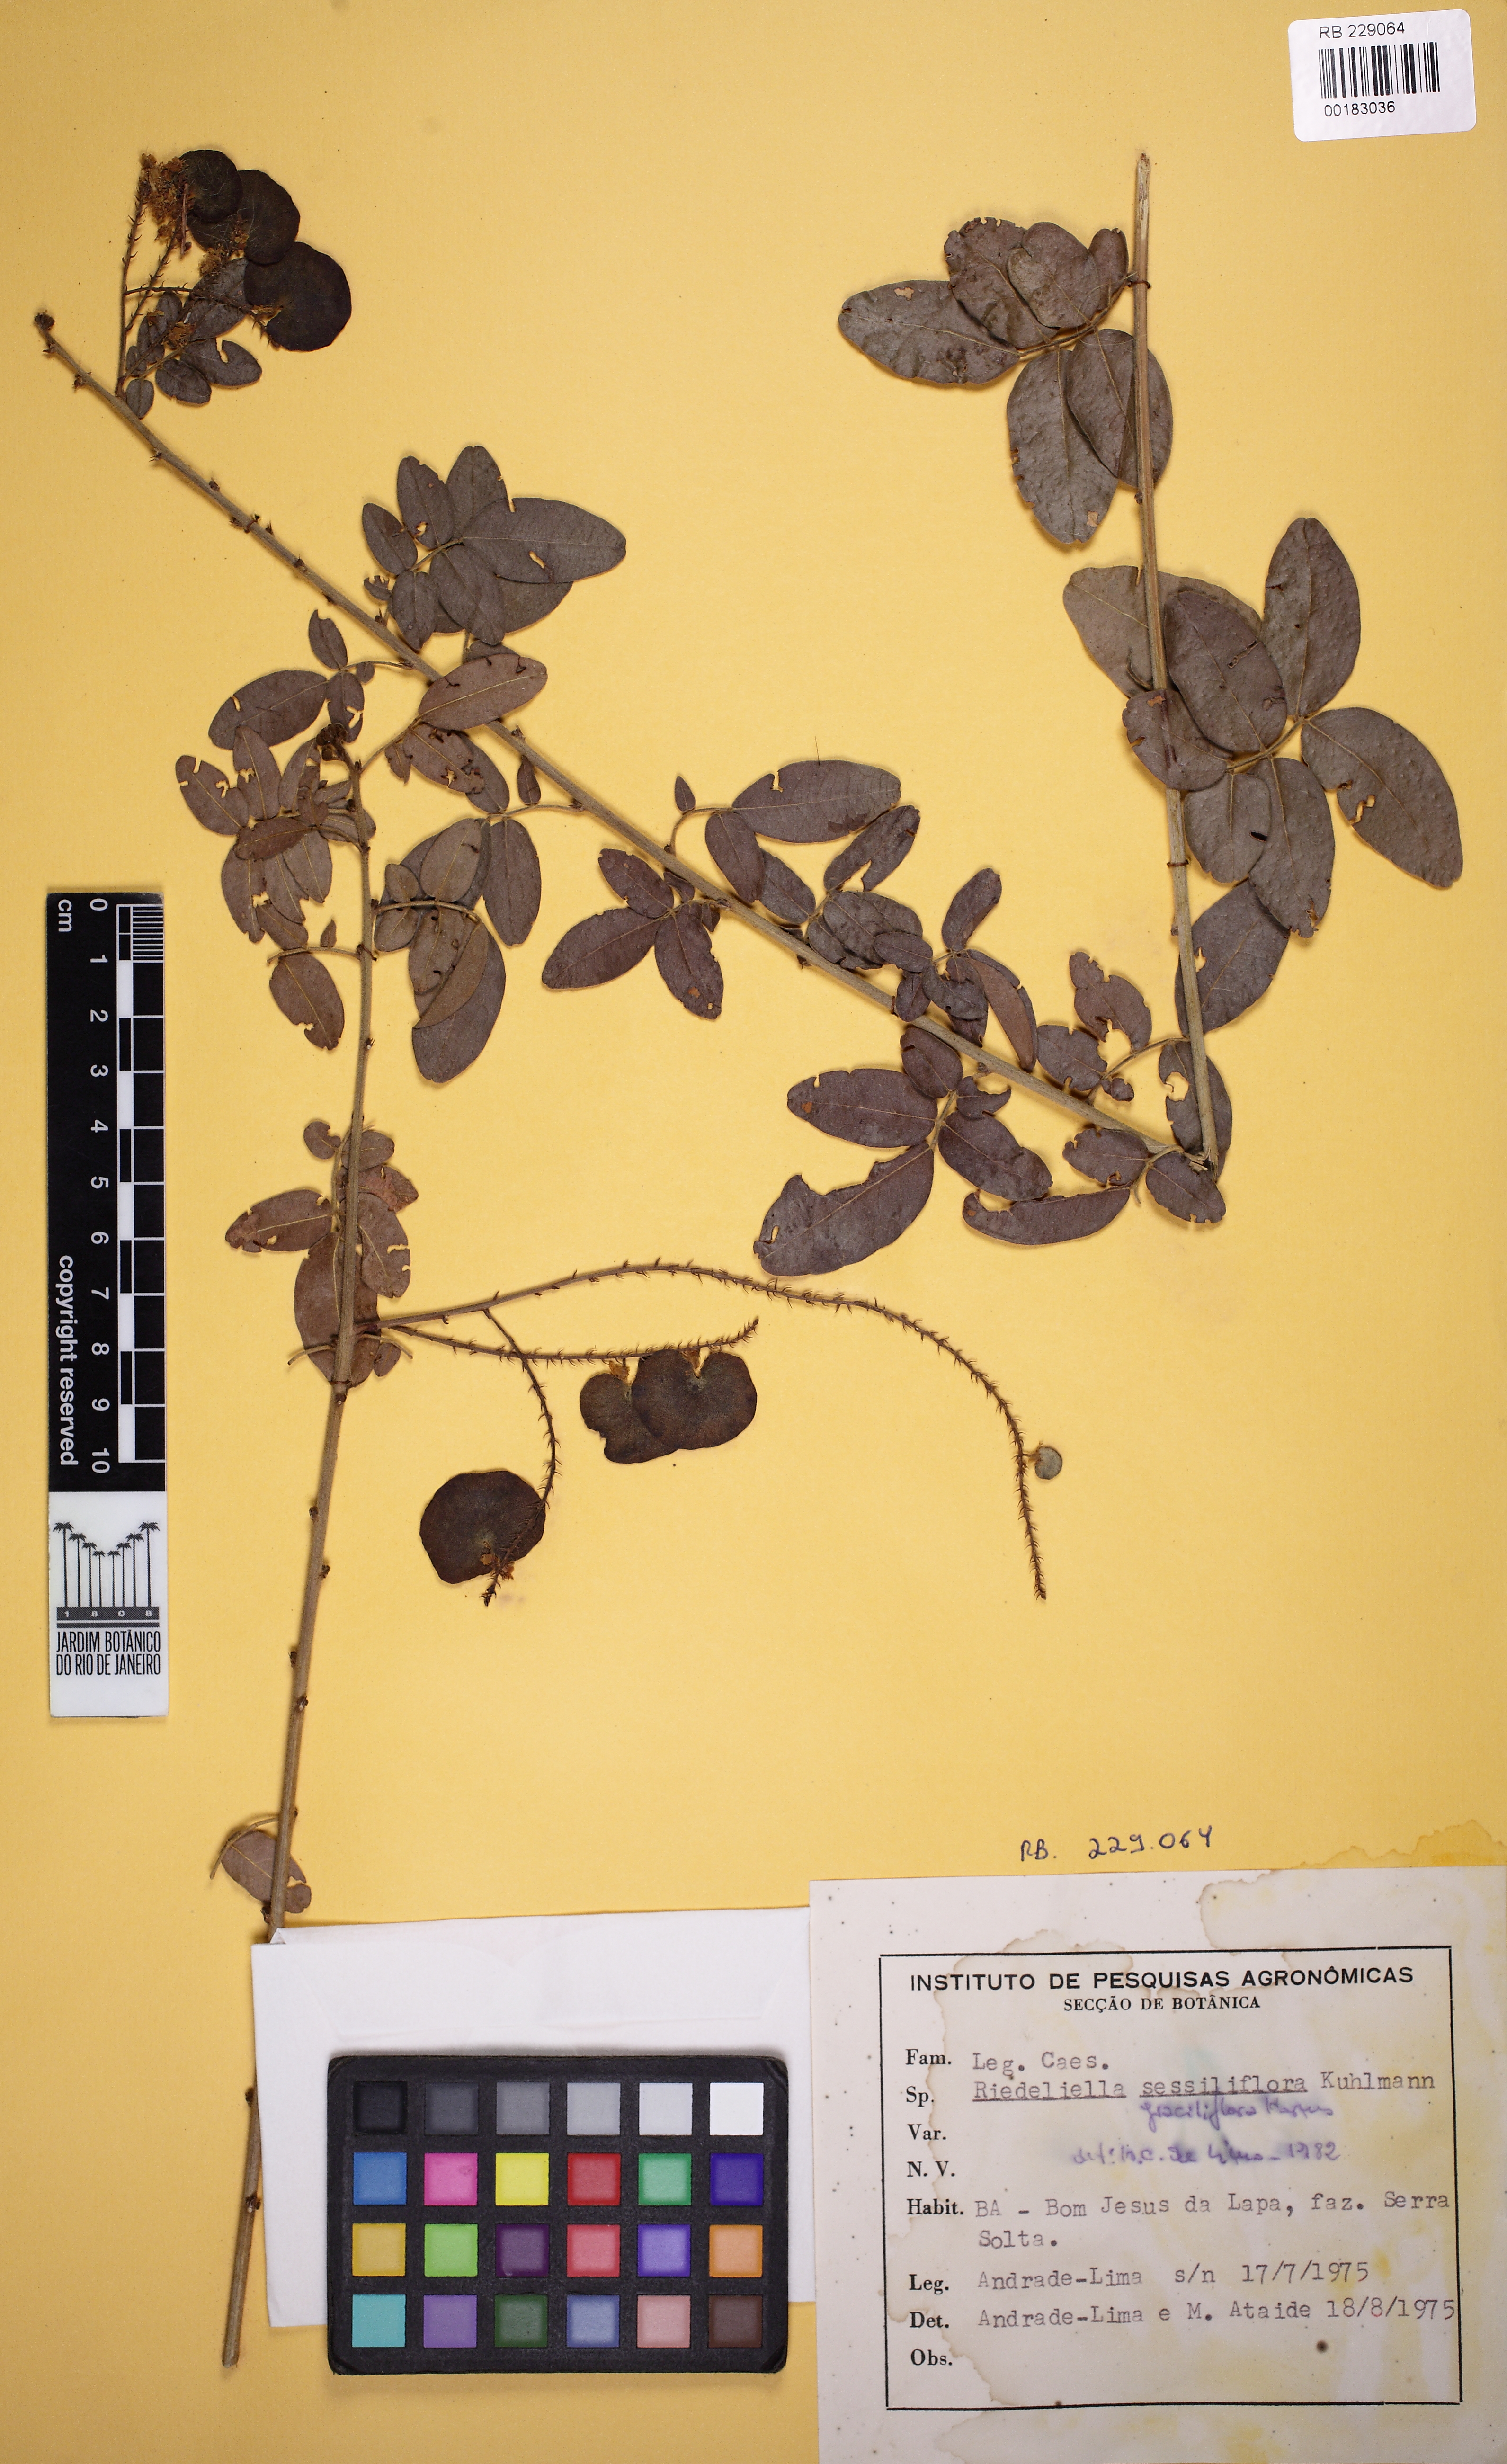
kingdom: Plantae
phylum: Tracheophyta
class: Magnoliopsida
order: Fabales
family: Fabaceae
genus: Riedeliella
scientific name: Riedeliella graciliflora
